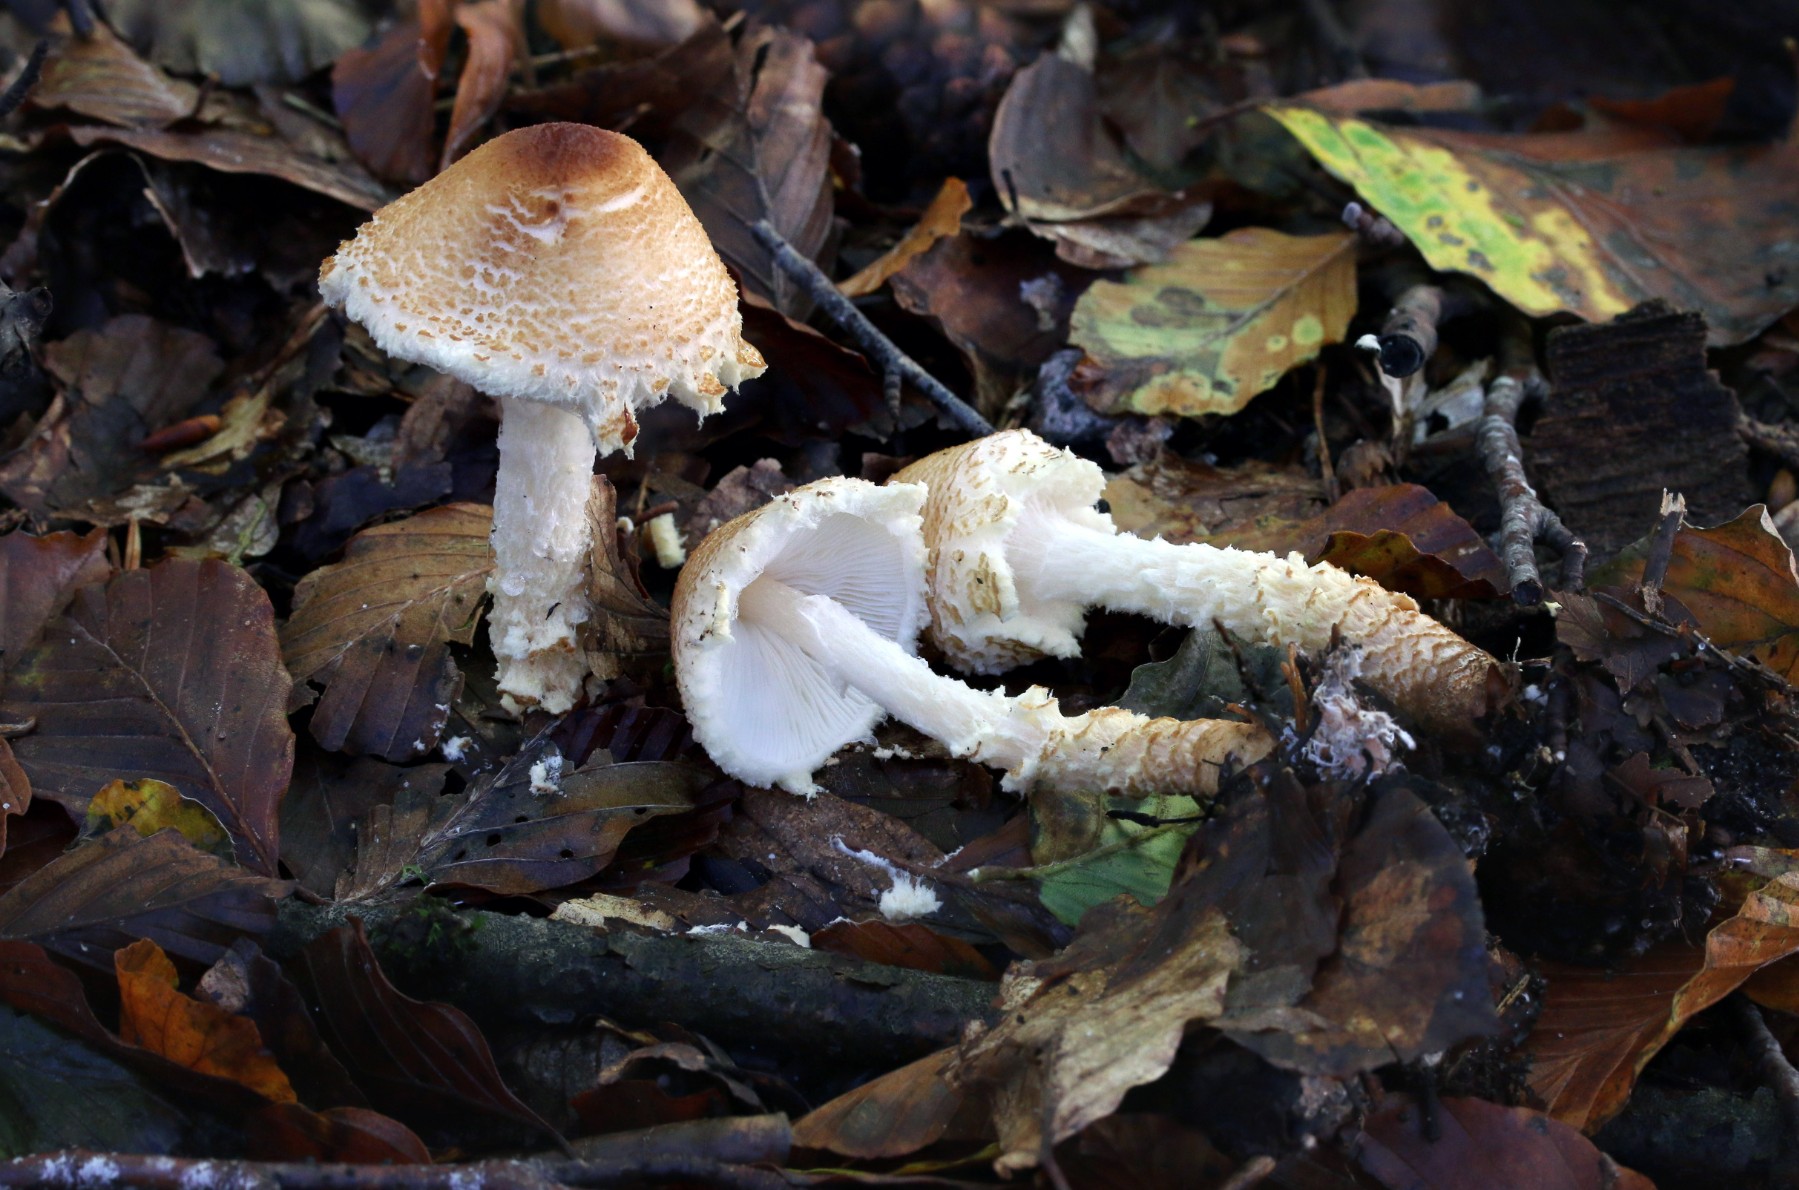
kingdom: Fungi
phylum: Basidiomycota
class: Agaricomycetes
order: Agaricales
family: Agaricaceae
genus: Lepiota
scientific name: Lepiota magnispora
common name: gulfnugget parasolhat
